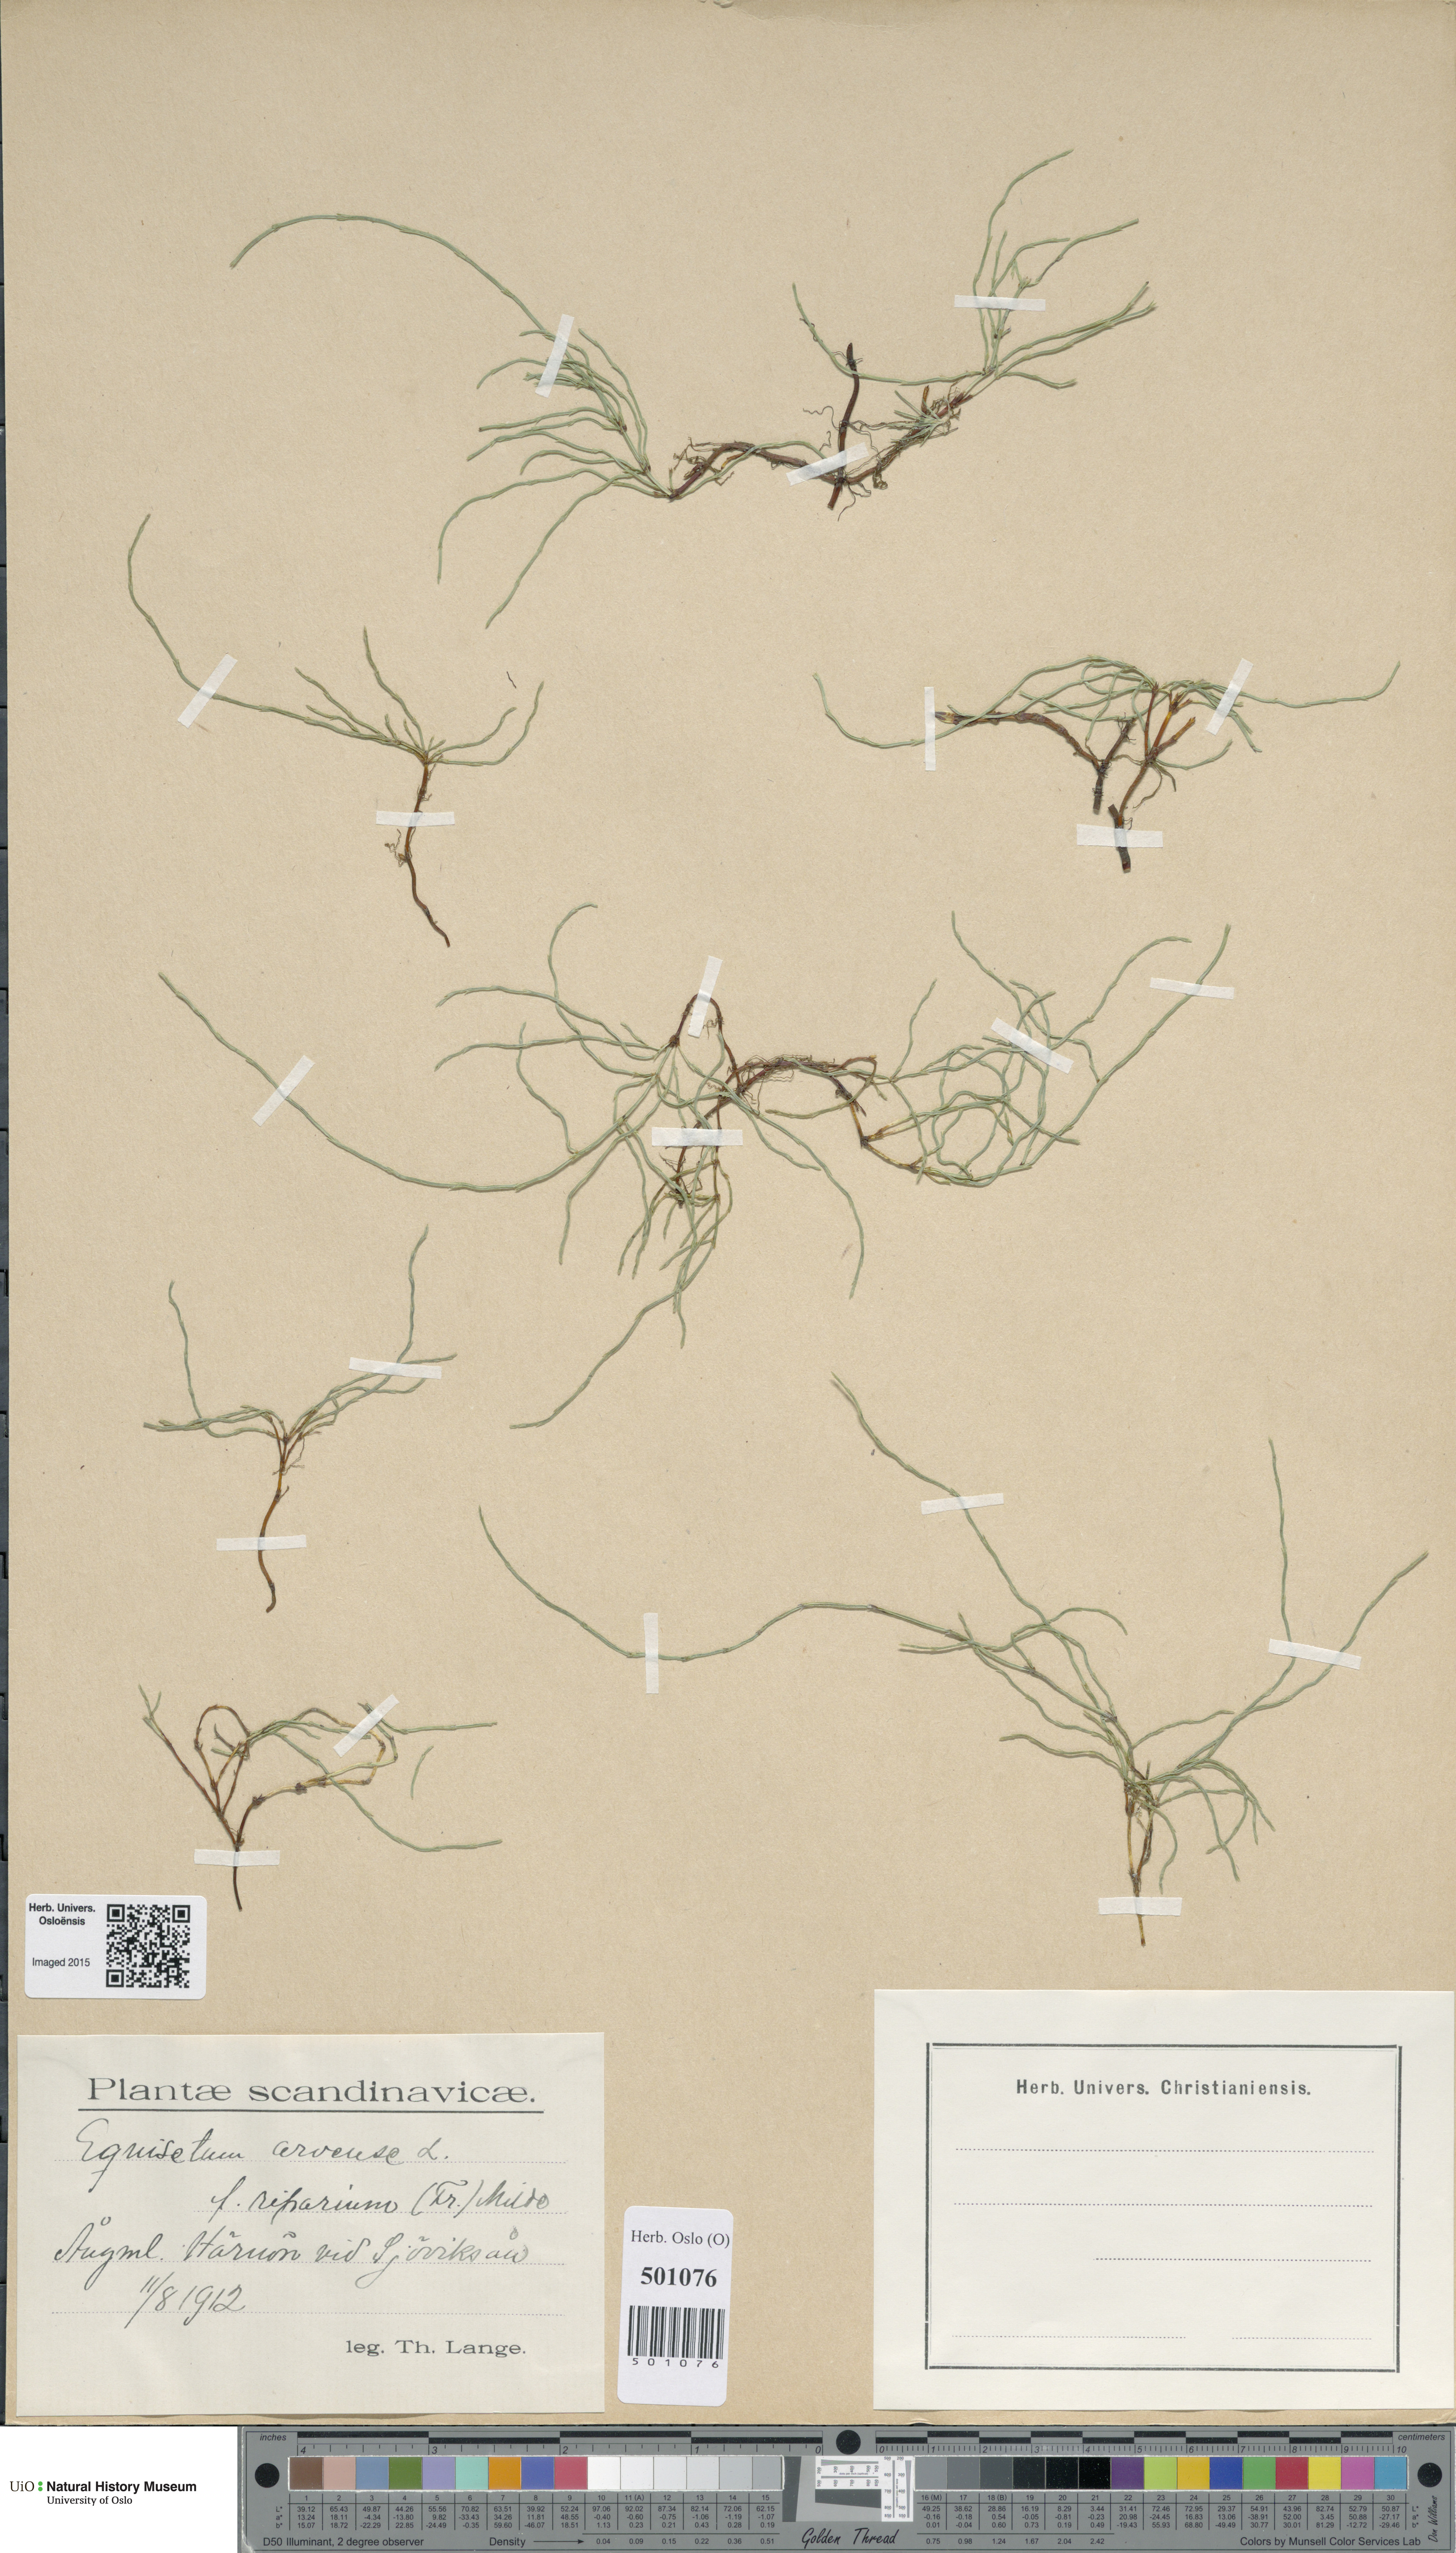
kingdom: Plantae
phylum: Tracheophyta
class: Polypodiopsida
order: Equisetales
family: Equisetaceae
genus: Equisetum
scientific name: Equisetum arvense
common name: Field horsetail
